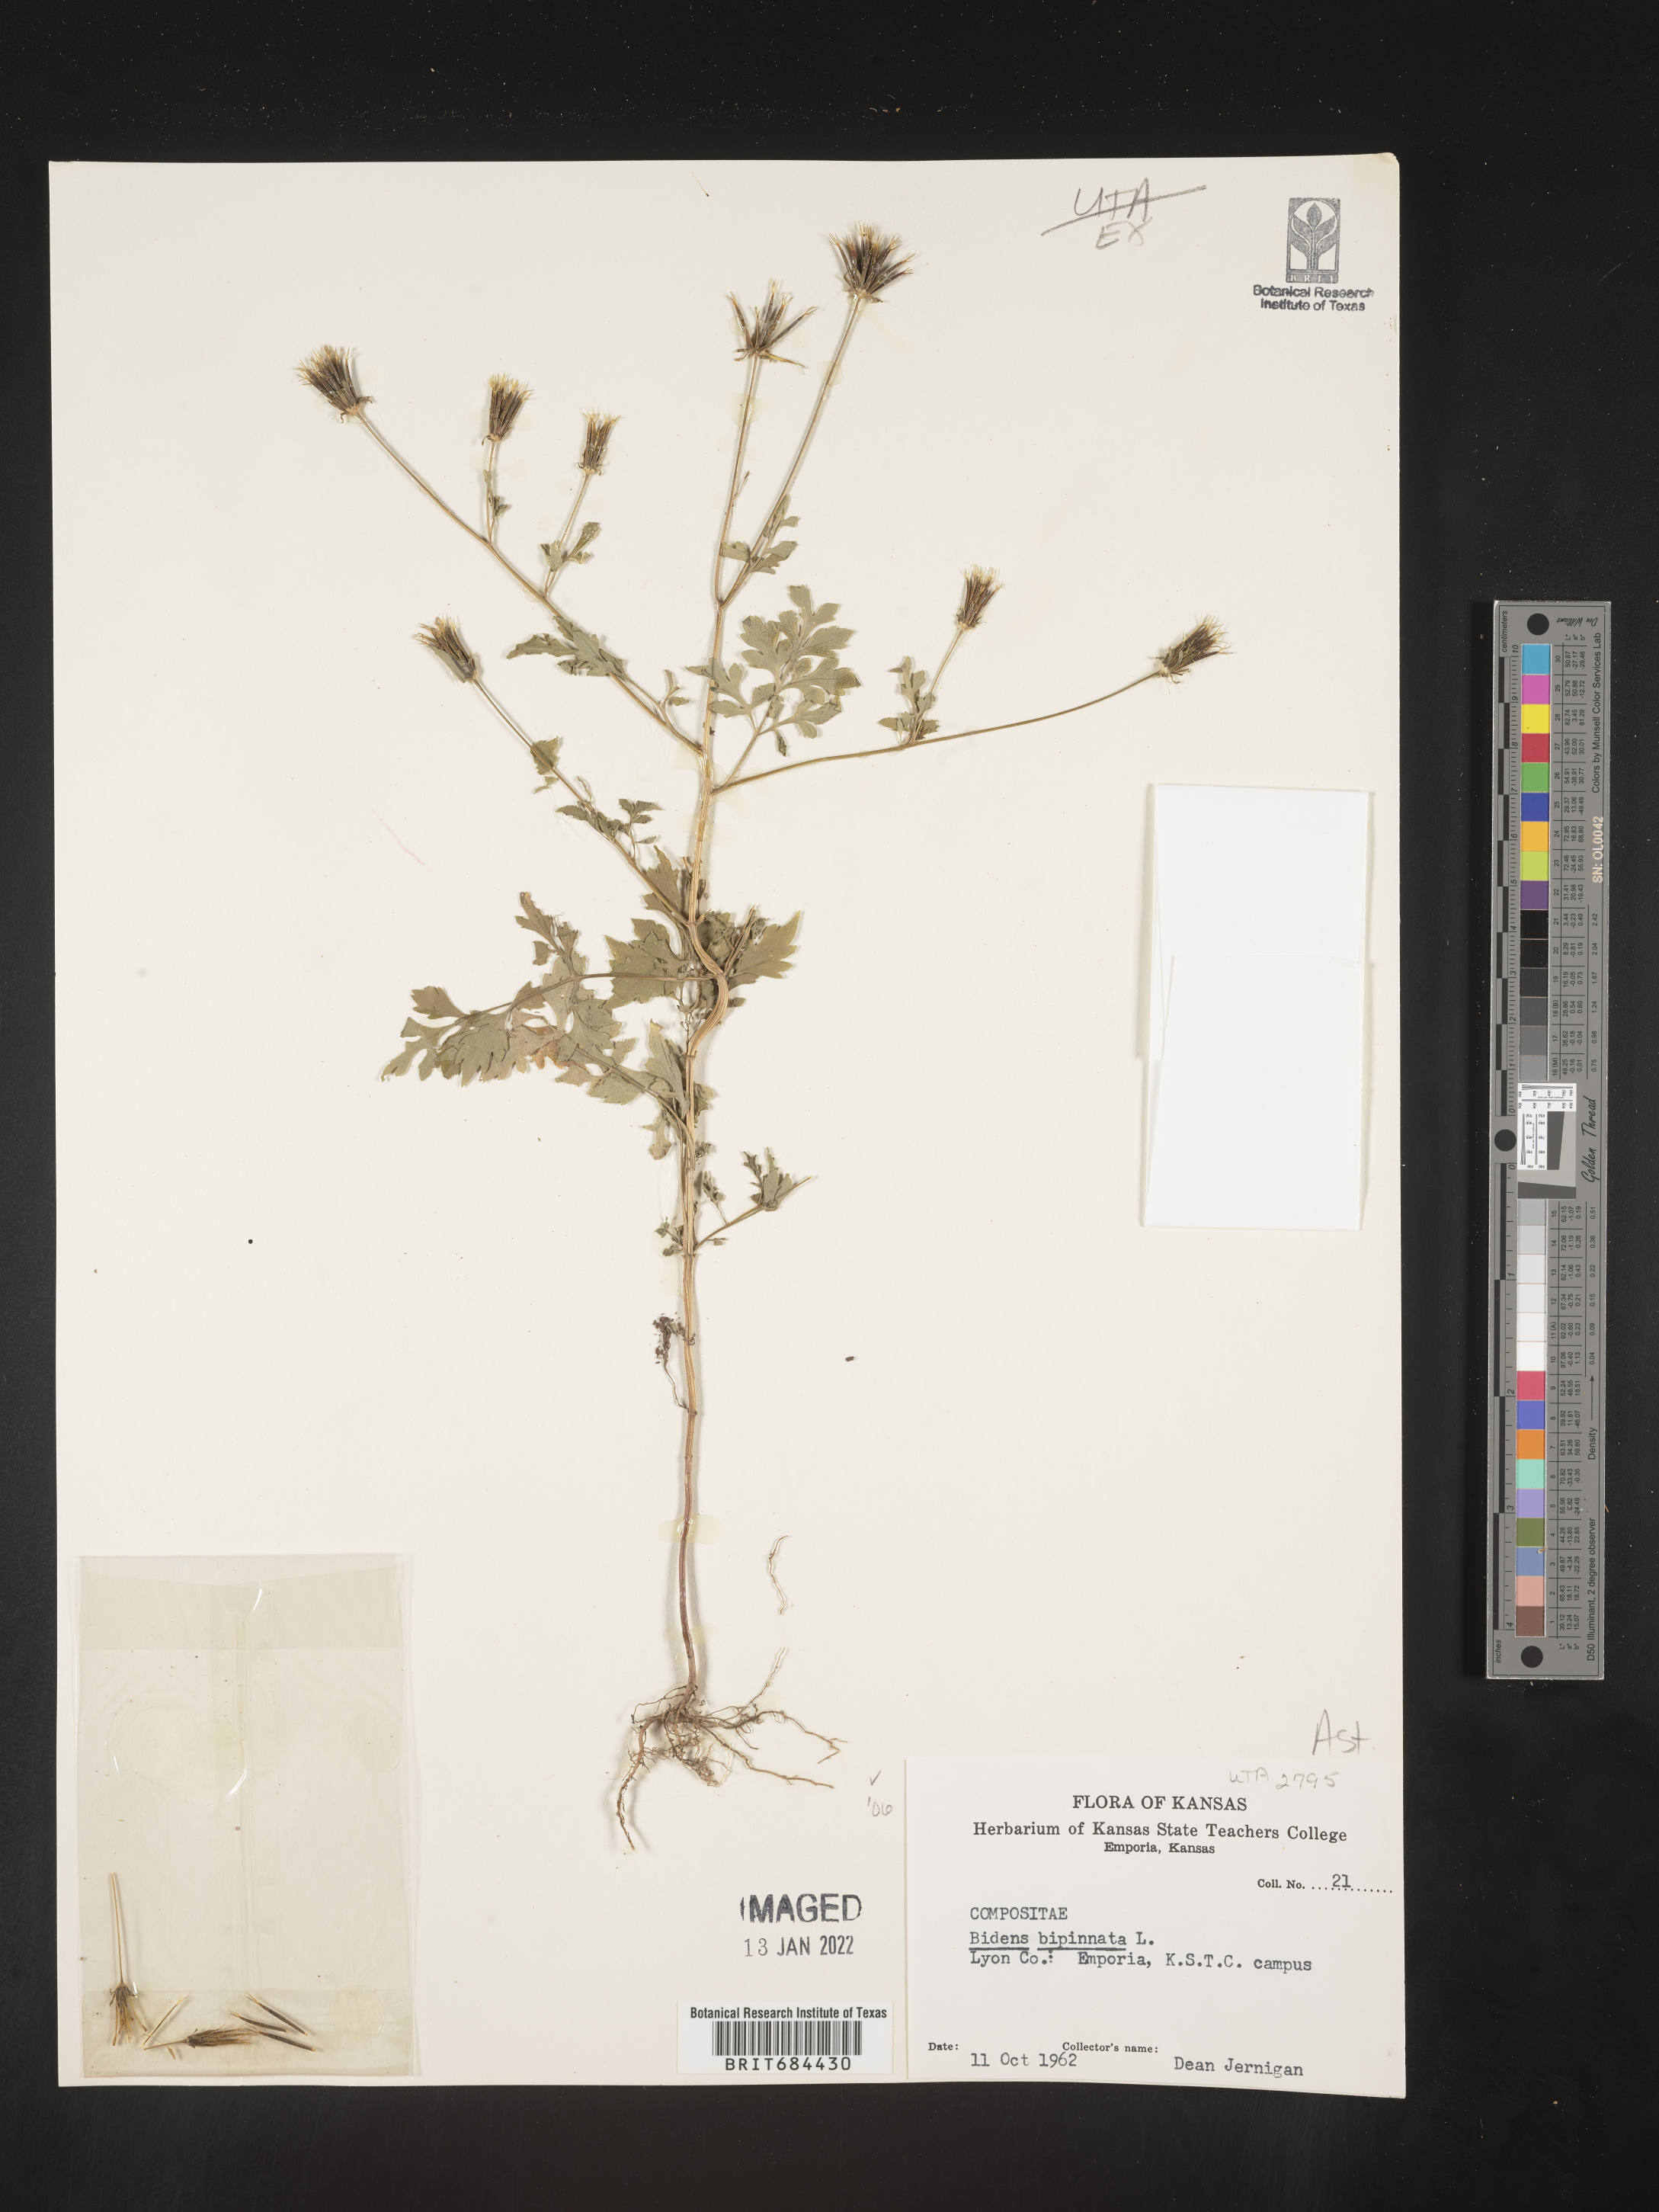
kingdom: Plantae
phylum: Tracheophyta
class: Magnoliopsida
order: Asterales
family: Asteraceae
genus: Bidens
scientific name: Bidens bipinnata
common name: Spanish-needles
